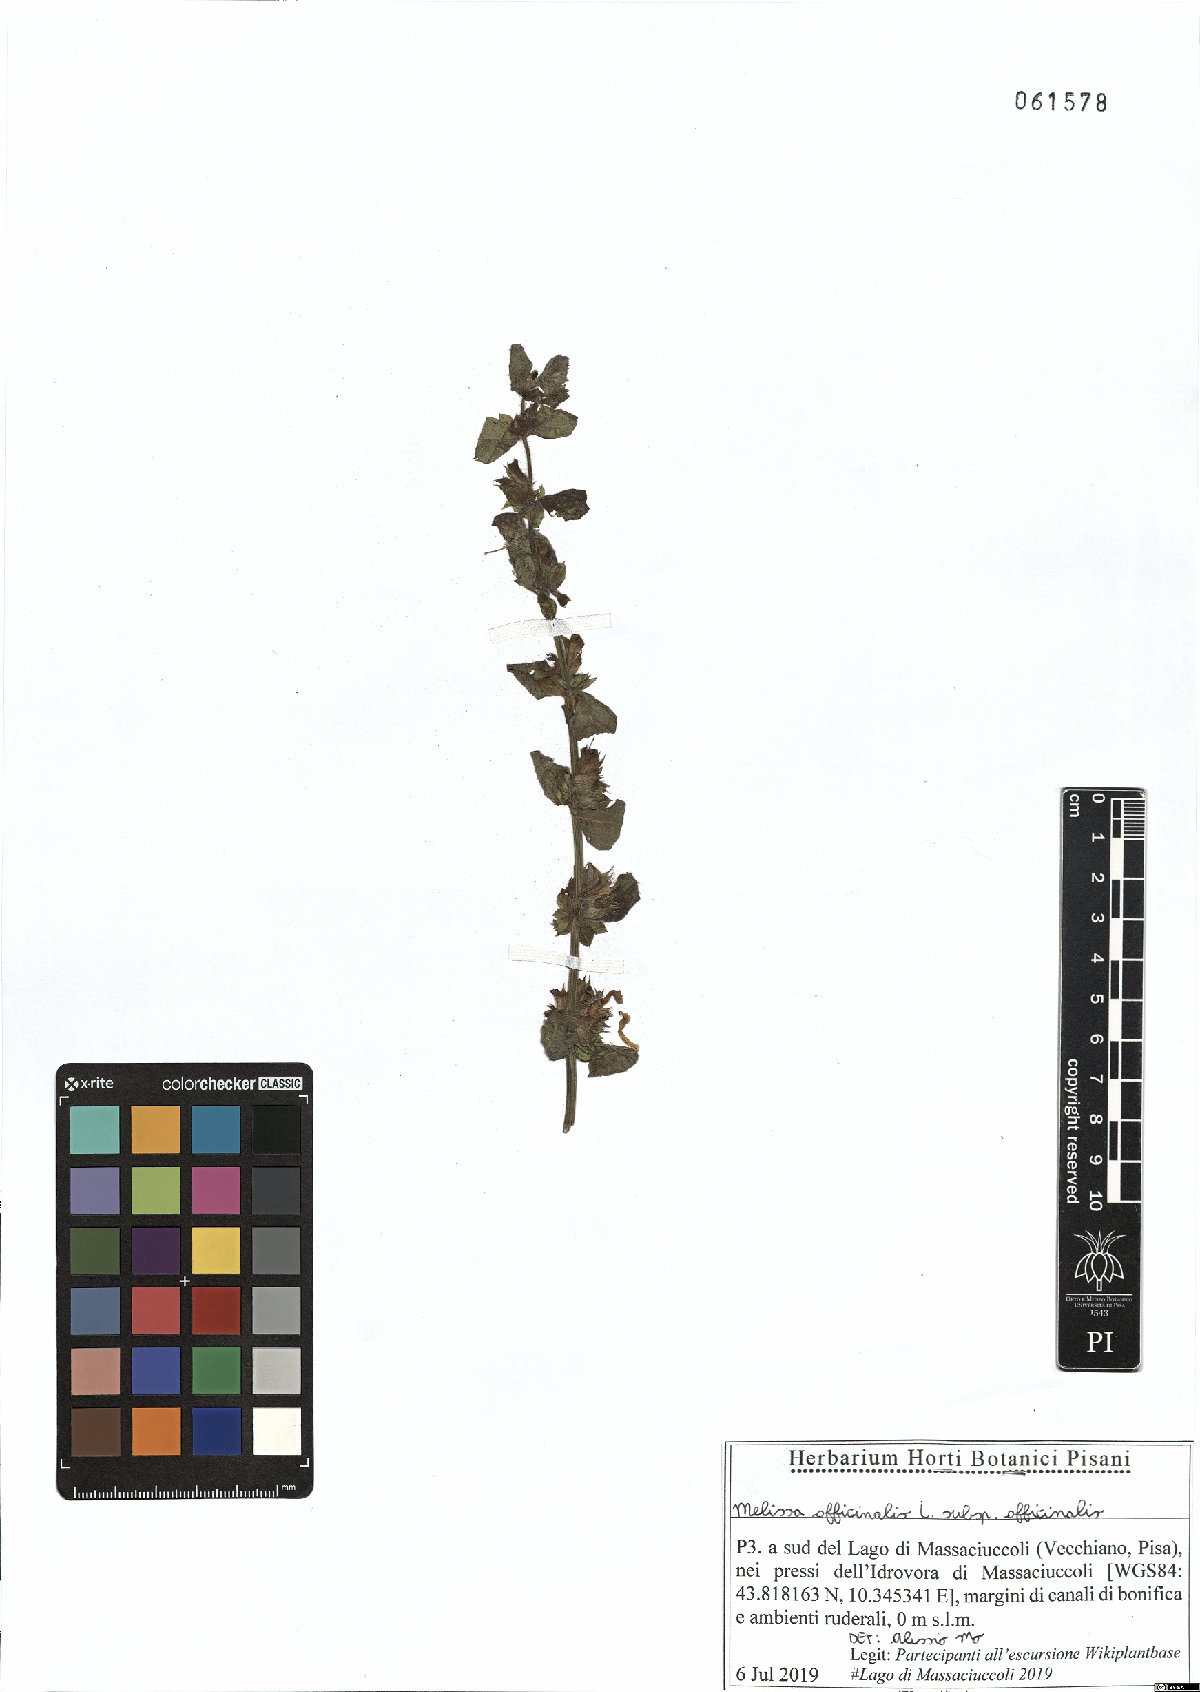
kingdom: Plantae
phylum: Tracheophyta
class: Magnoliopsida
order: Lamiales
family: Lamiaceae
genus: Melissa
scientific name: Melissa officinalis
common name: Balm
